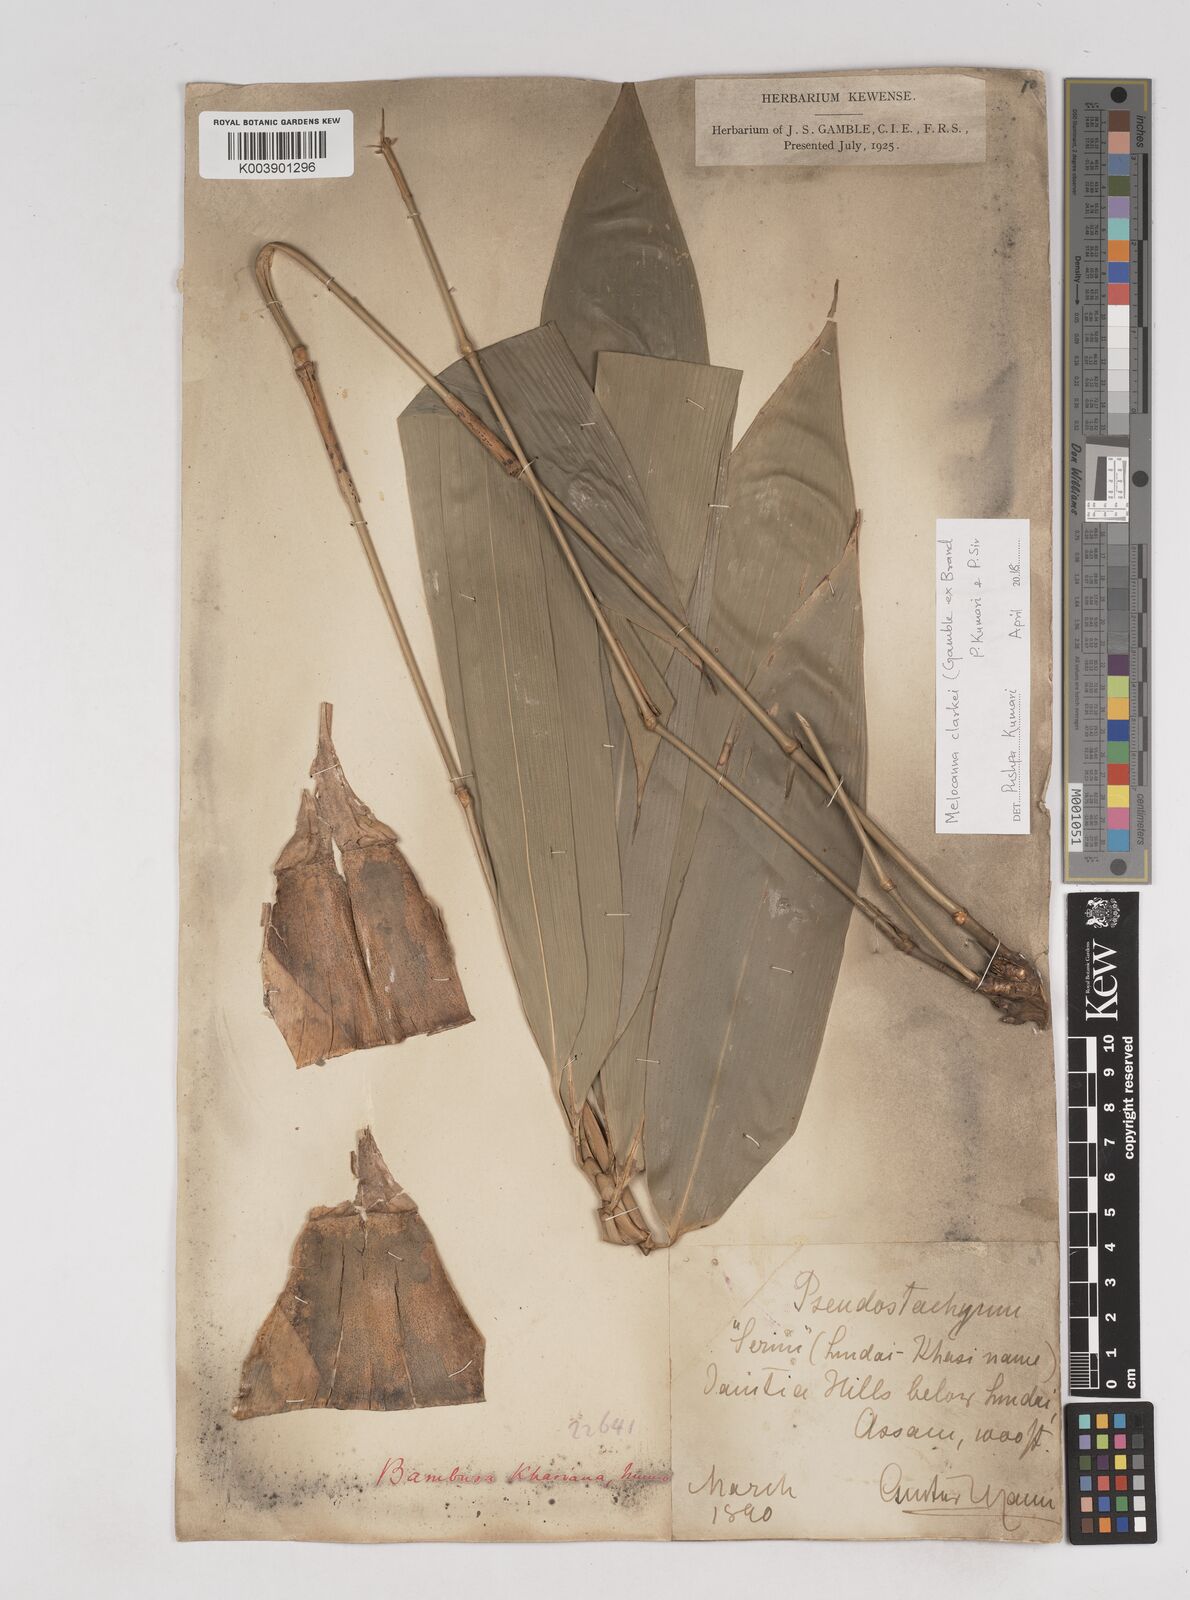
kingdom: Plantae
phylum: Tracheophyta
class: Liliopsida
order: Poales
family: Poaceae
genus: Melocanna
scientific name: Melocanna clarkei
